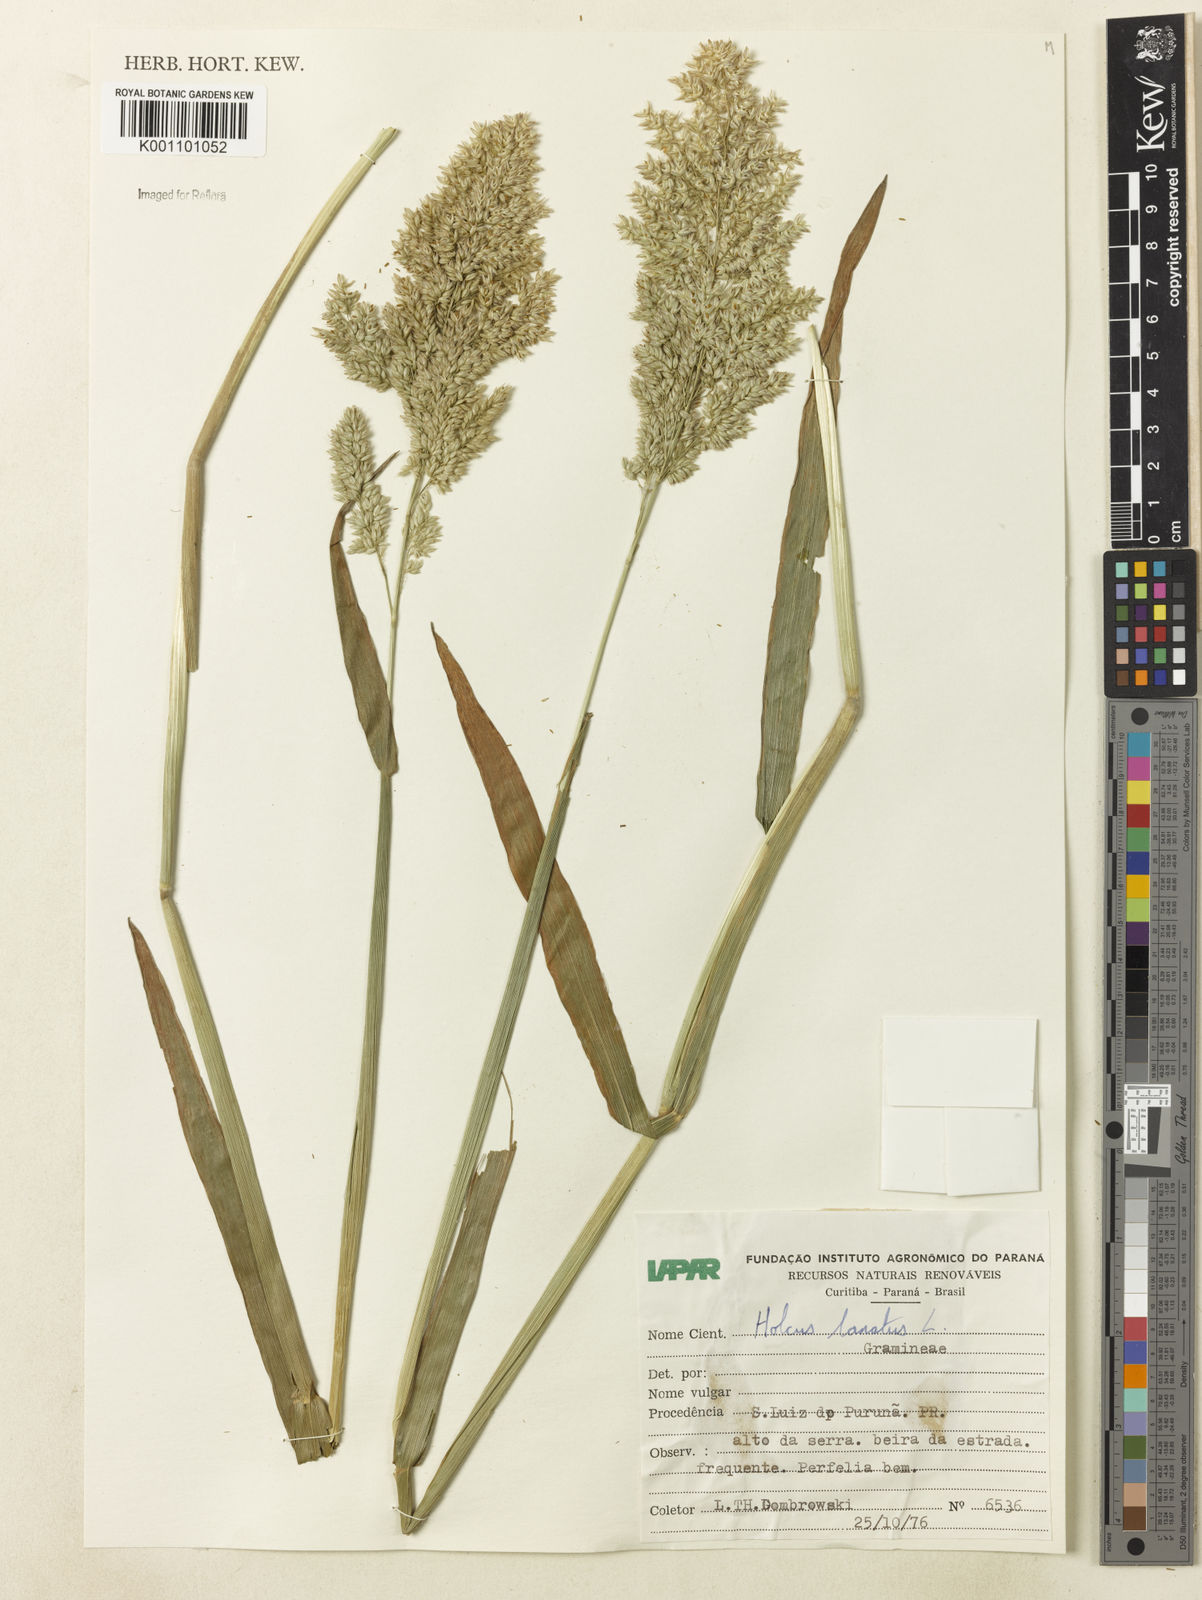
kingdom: Plantae
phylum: Tracheophyta
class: Liliopsida
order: Poales
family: Poaceae
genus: Holcus
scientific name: Holcus lanatus
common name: Yorkshire-fog
